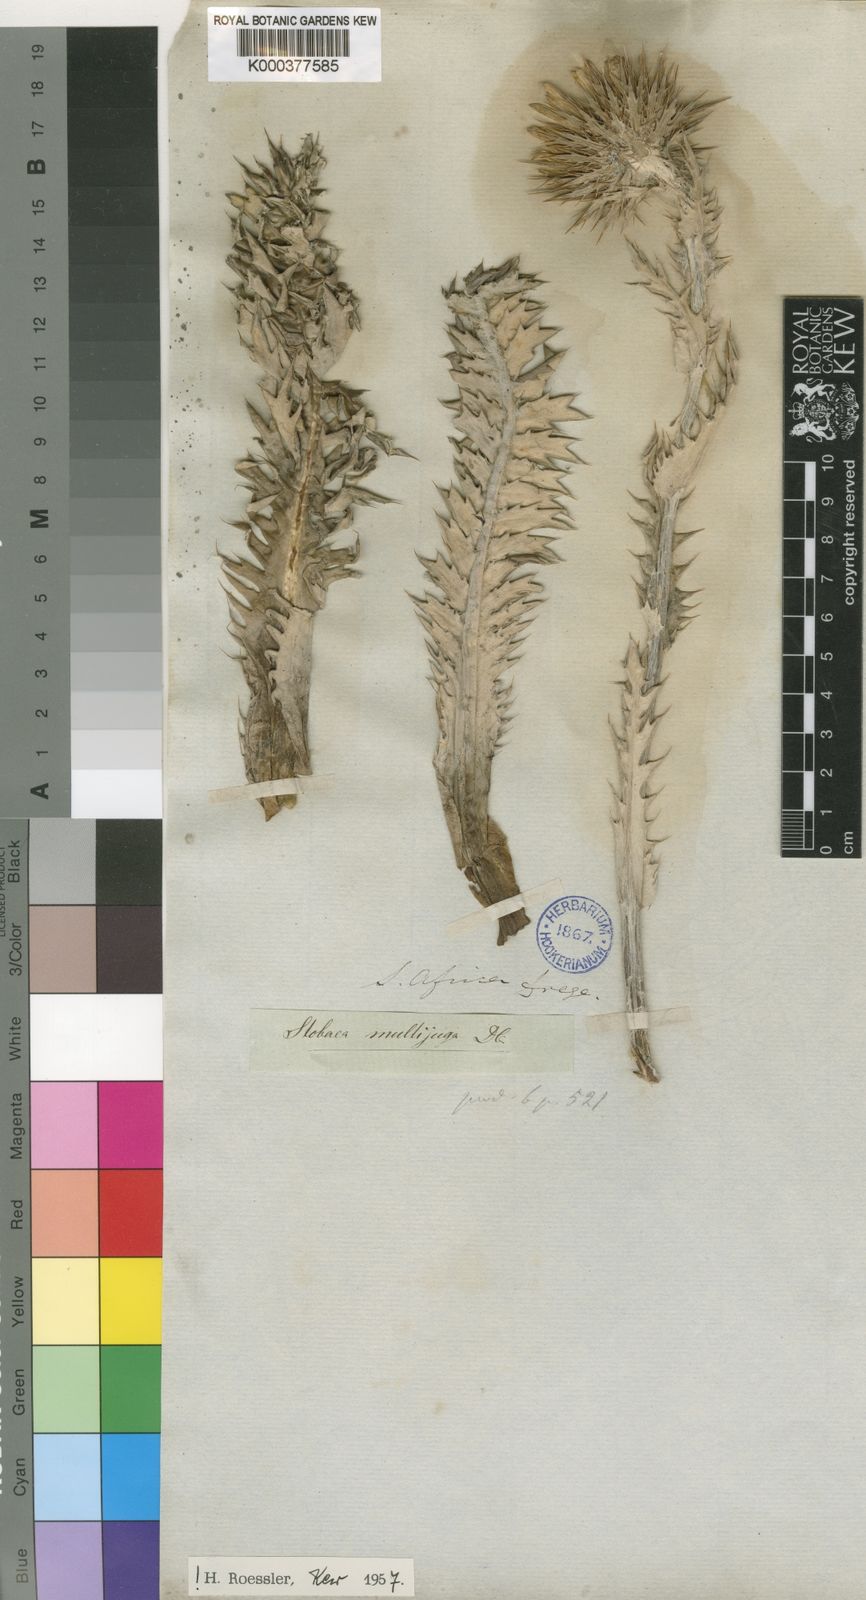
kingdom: Plantae
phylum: Tracheophyta
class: Magnoliopsida
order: Asterales
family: Asteraceae
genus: Berkheya
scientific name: Berkheya multijuga
